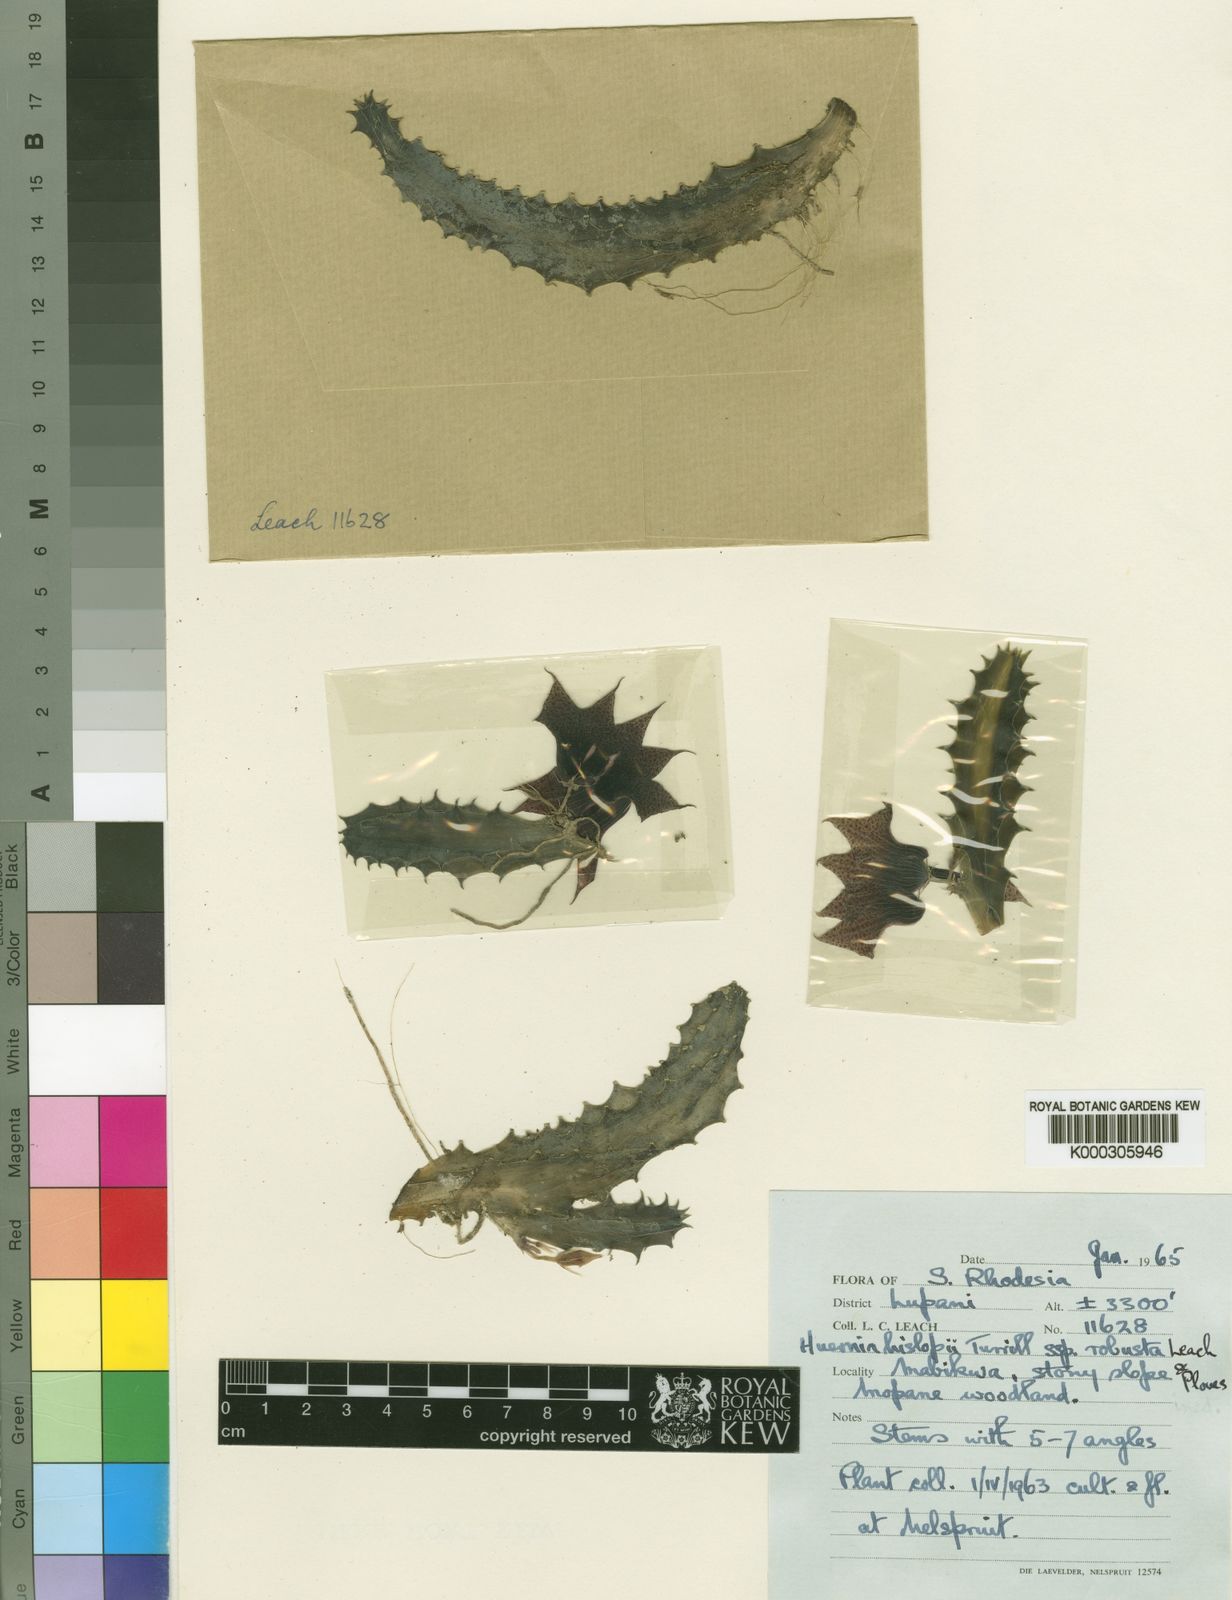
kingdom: Plantae
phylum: Tracheophyta
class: Magnoliopsida
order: Gentianales
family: Apocynaceae
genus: Ceropegia
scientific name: Ceropegia hislopii
